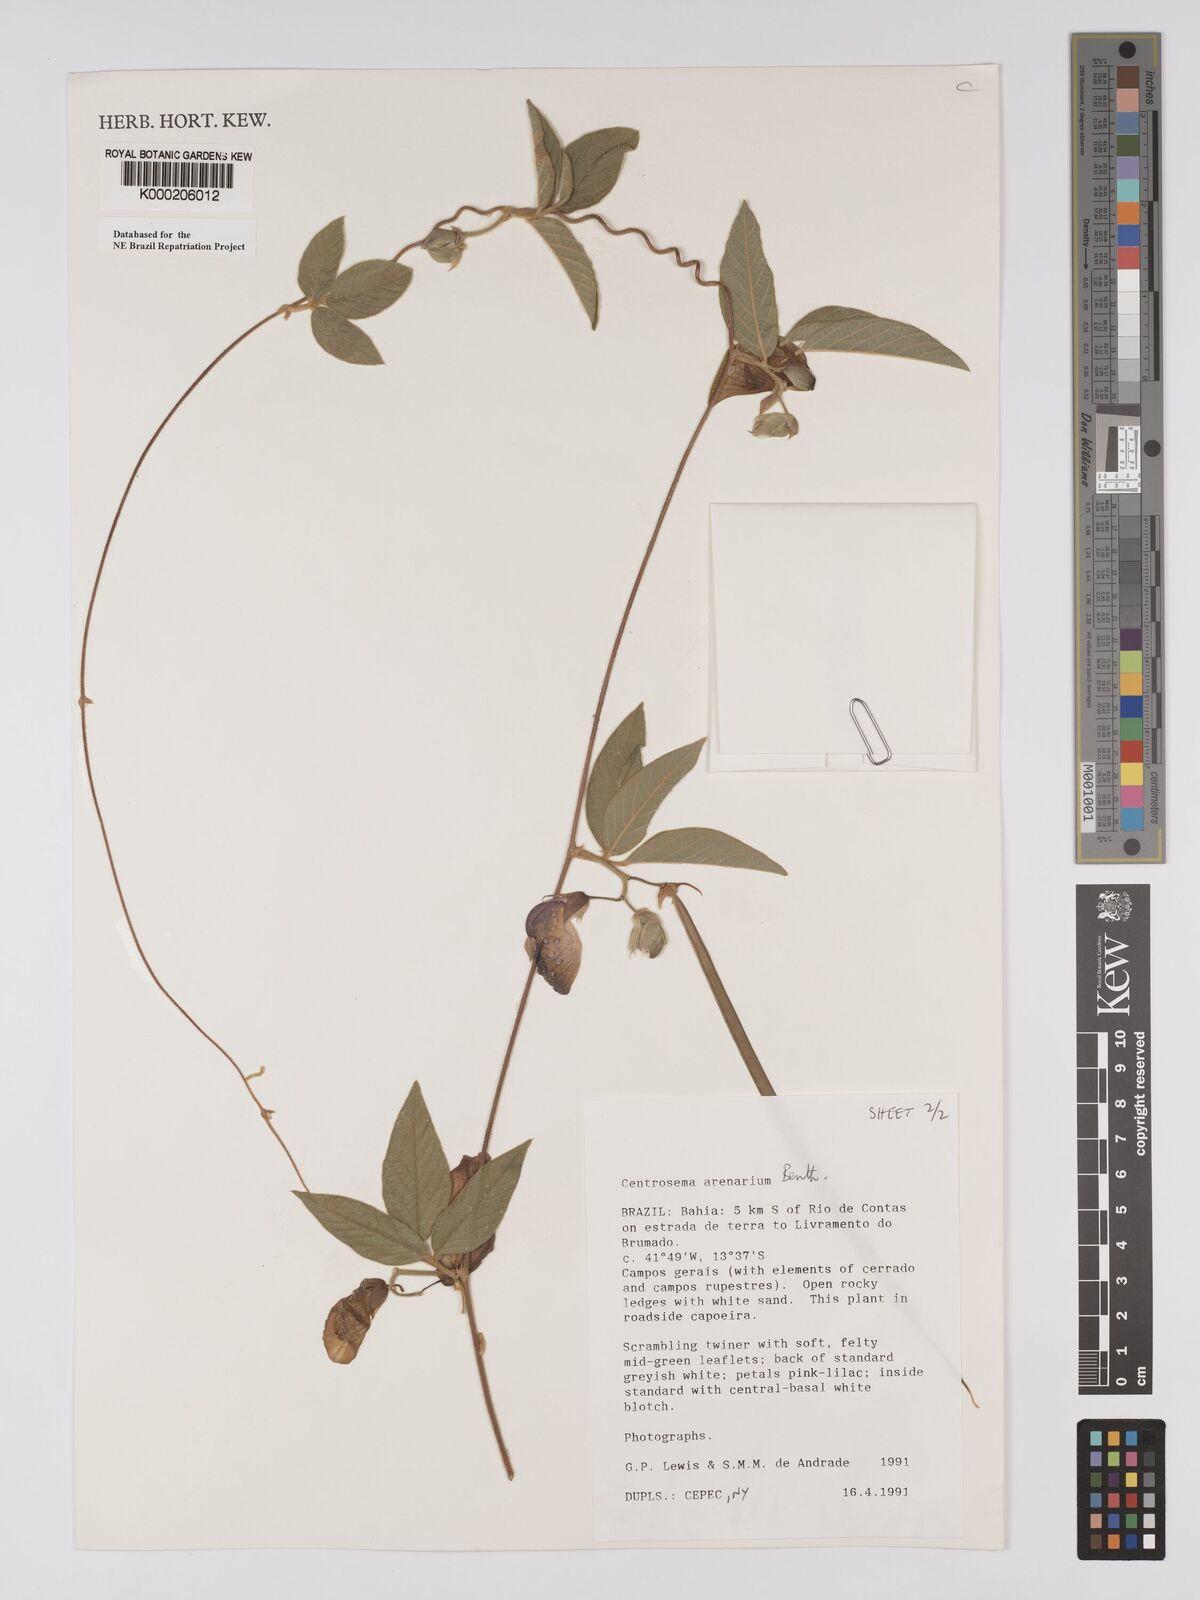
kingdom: Plantae
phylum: Tracheophyta
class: Magnoliopsida
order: Fabales
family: Fabaceae
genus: Centrosema
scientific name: Centrosema arenarium
